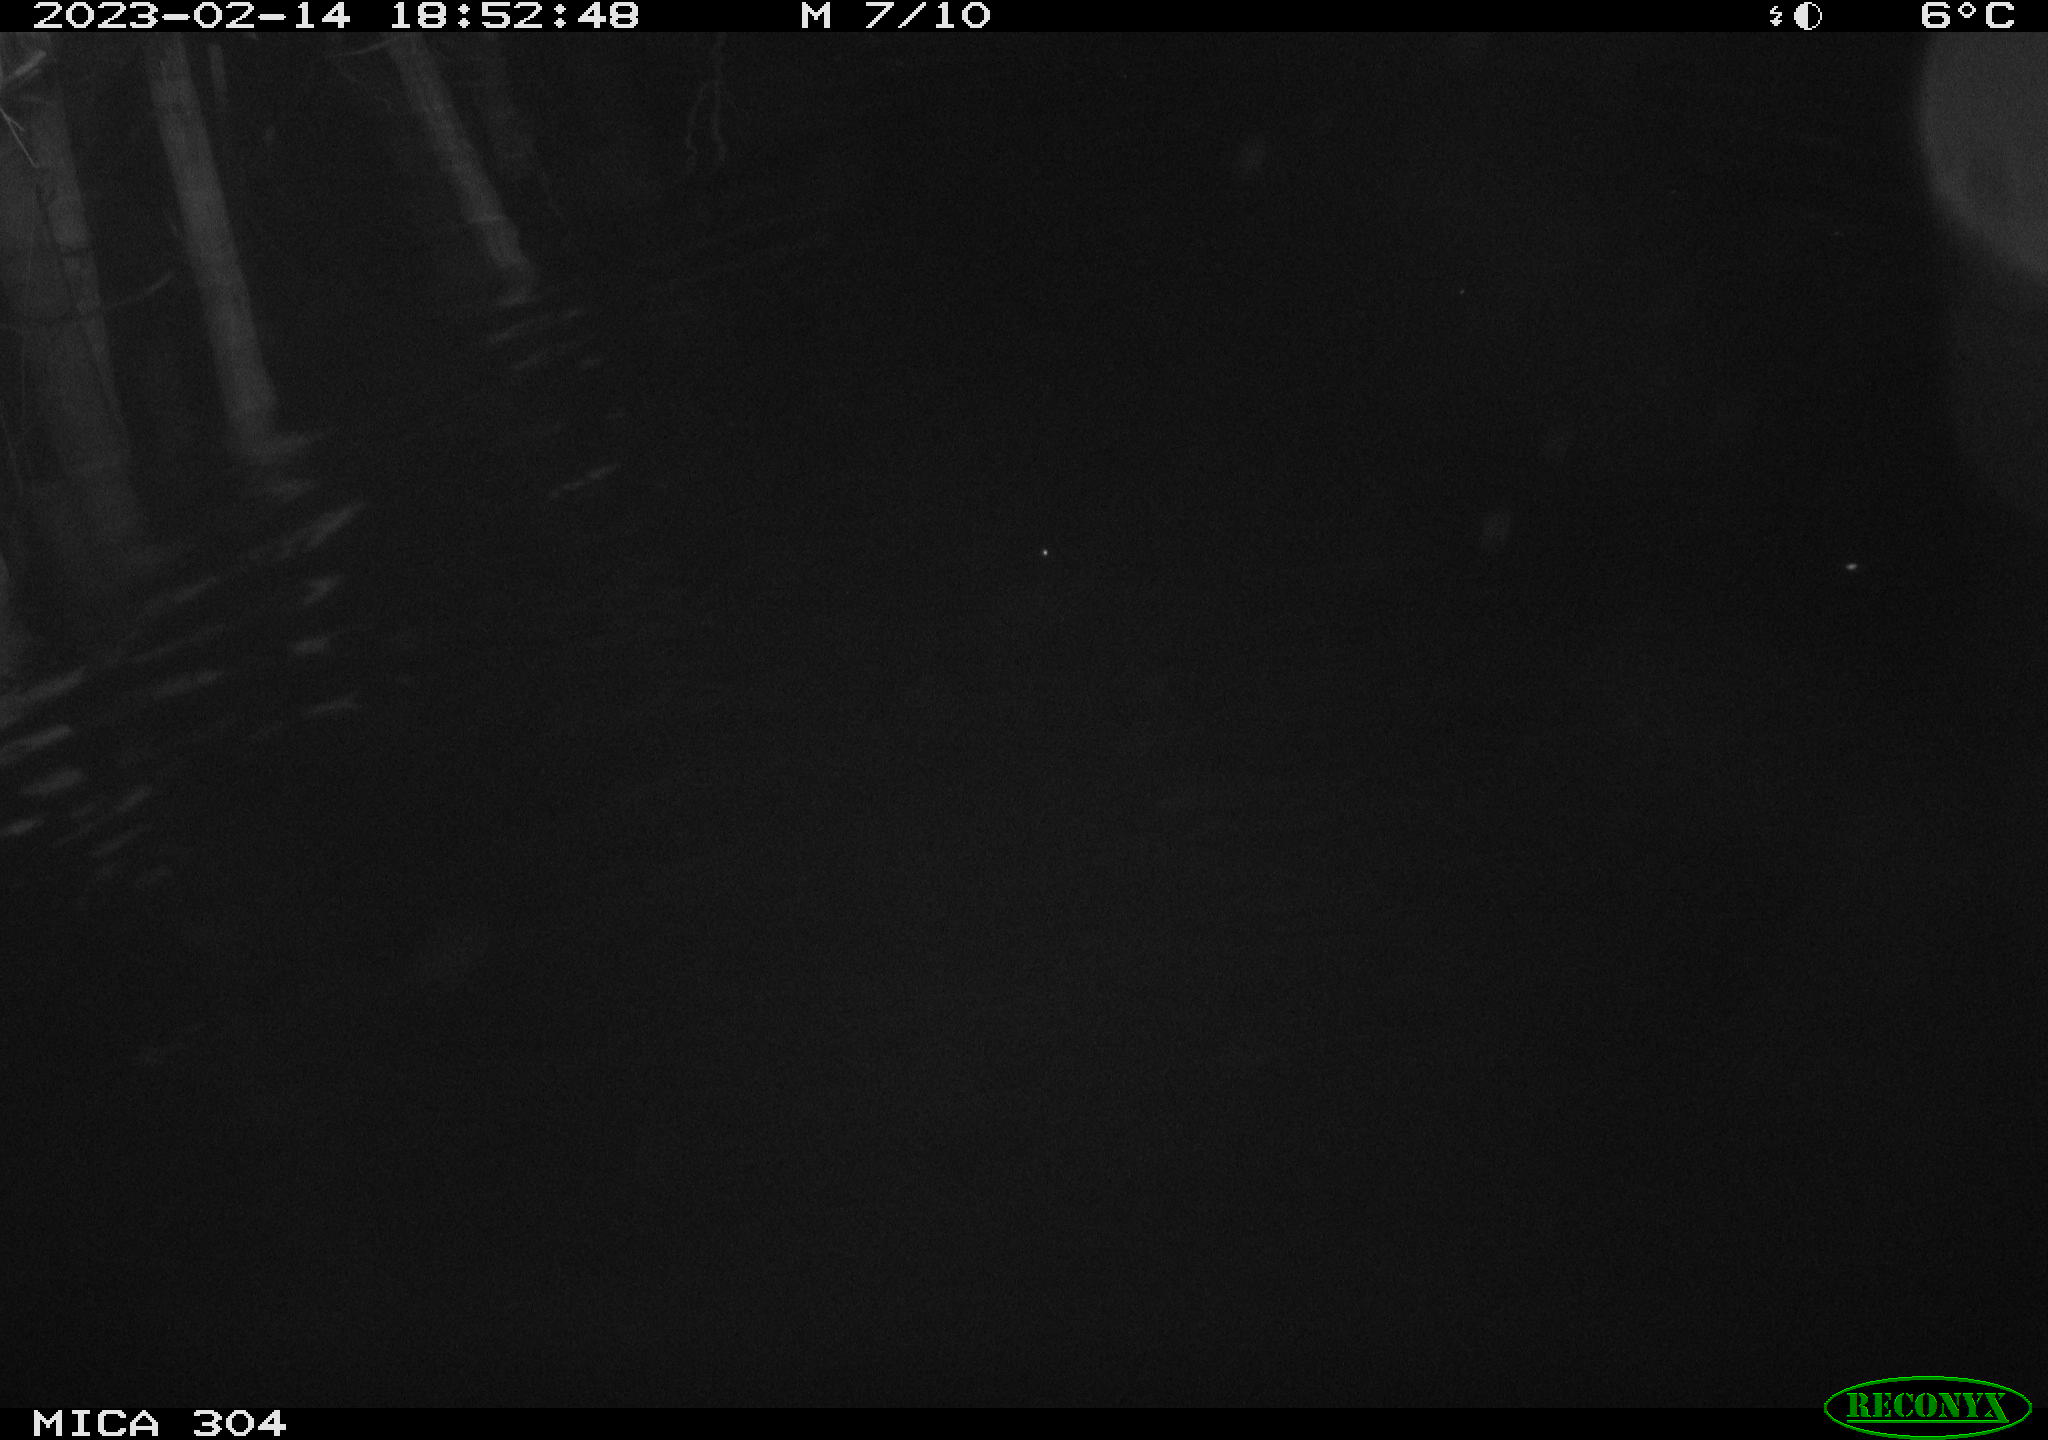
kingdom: Animalia
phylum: Chordata
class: Mammalia
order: Rodentia
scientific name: Rodentia
